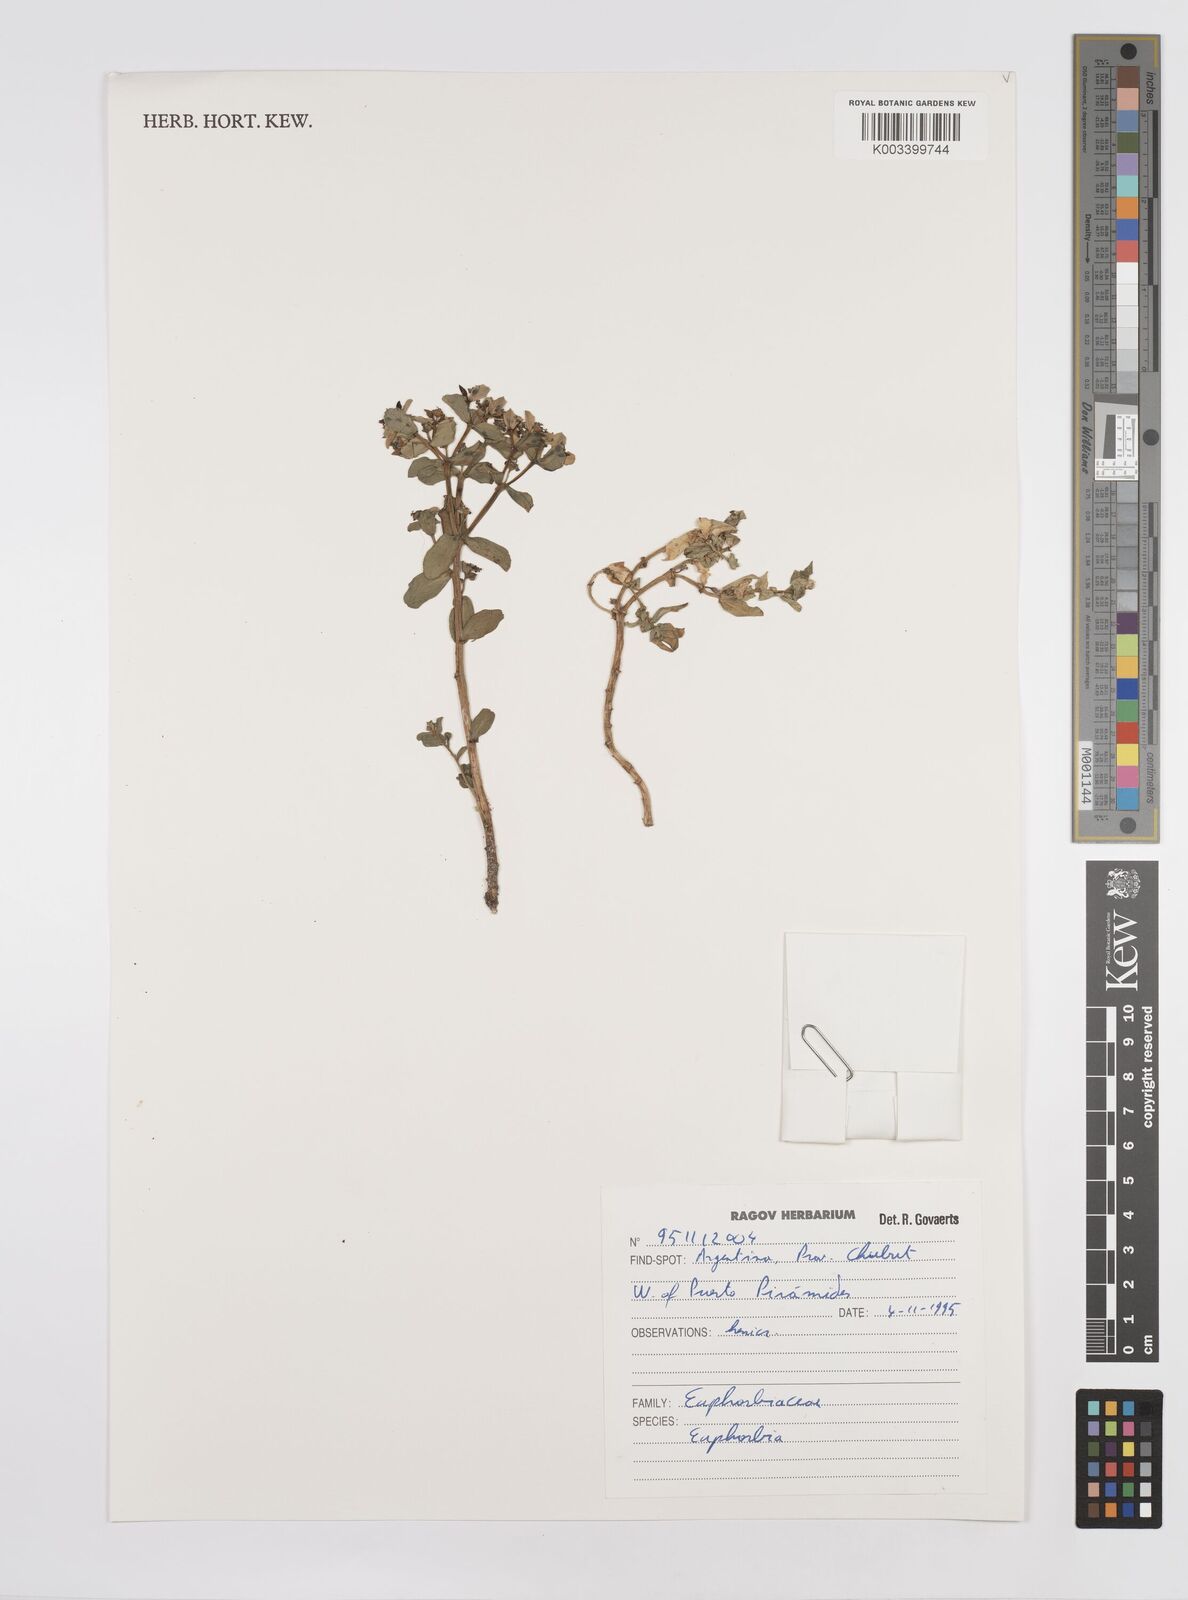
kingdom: Plantae
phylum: Tracheophyta
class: Magnoliopsida
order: Malpighiales
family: Euphorbiaceae
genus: Euphorbia
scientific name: Euphorbia
